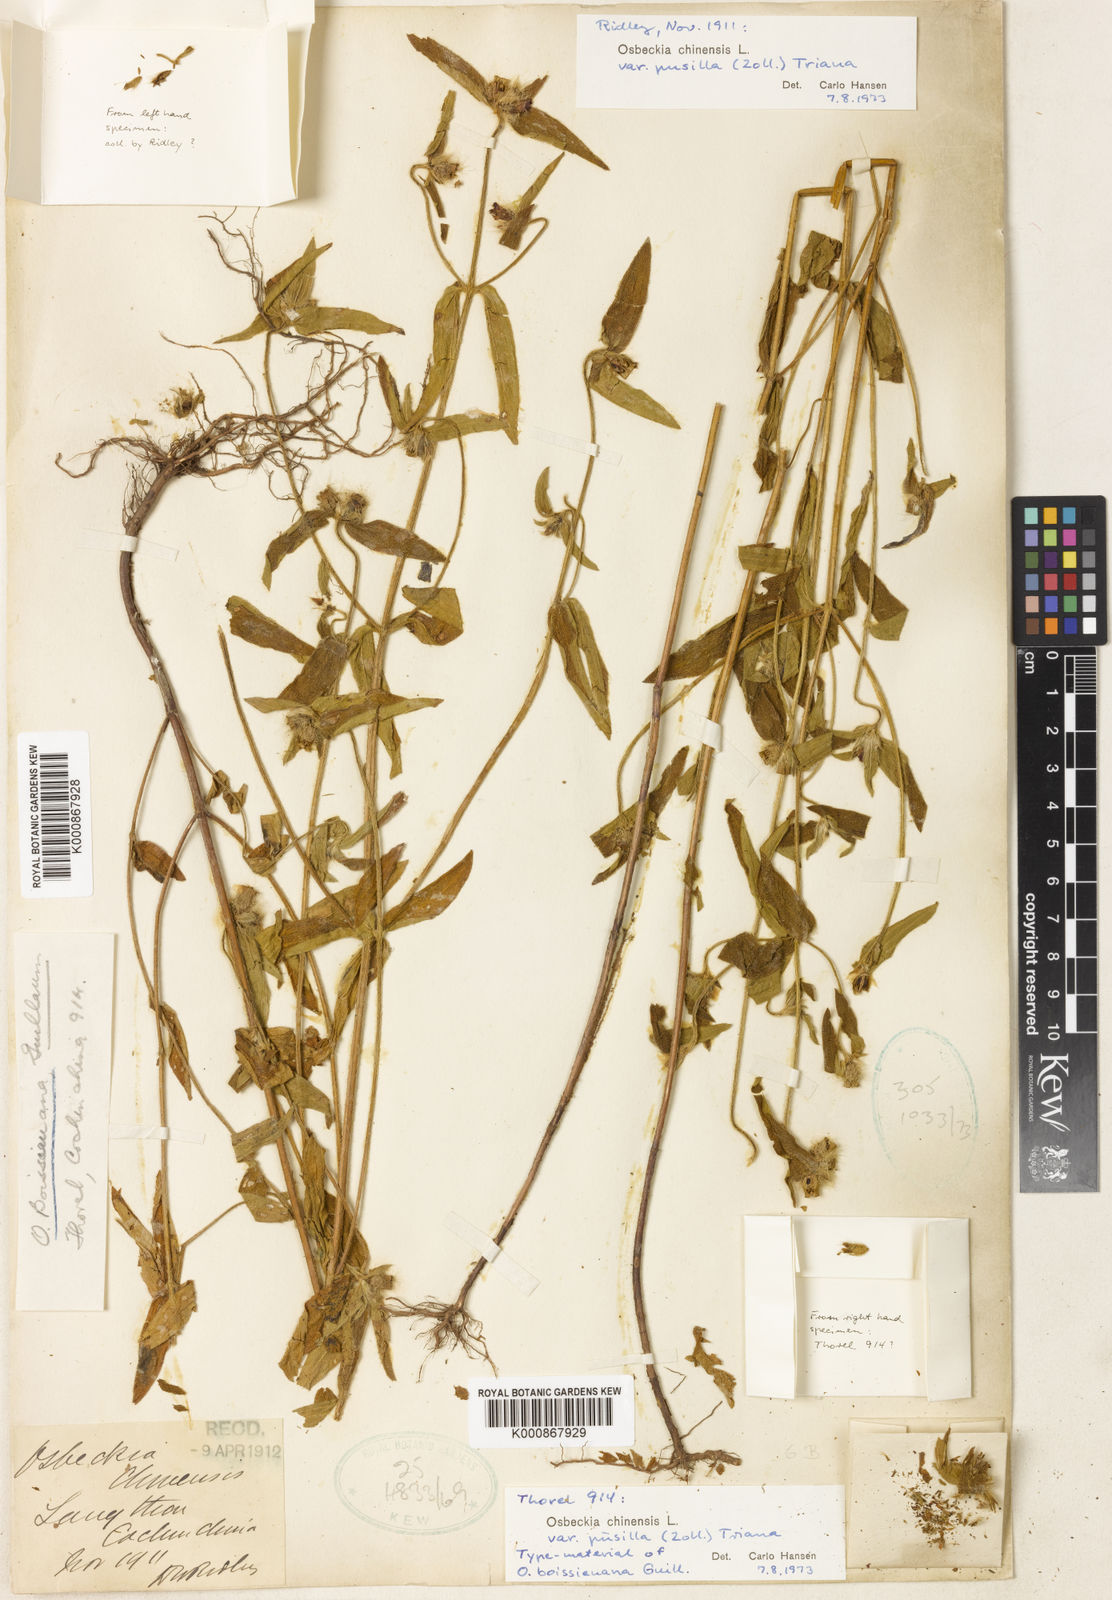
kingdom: Plantae
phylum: Tracheophyta
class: Magnoliopsida
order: Myrtales
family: Melastomataceae
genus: Osbeckia
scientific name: Osbeckia chinensis
